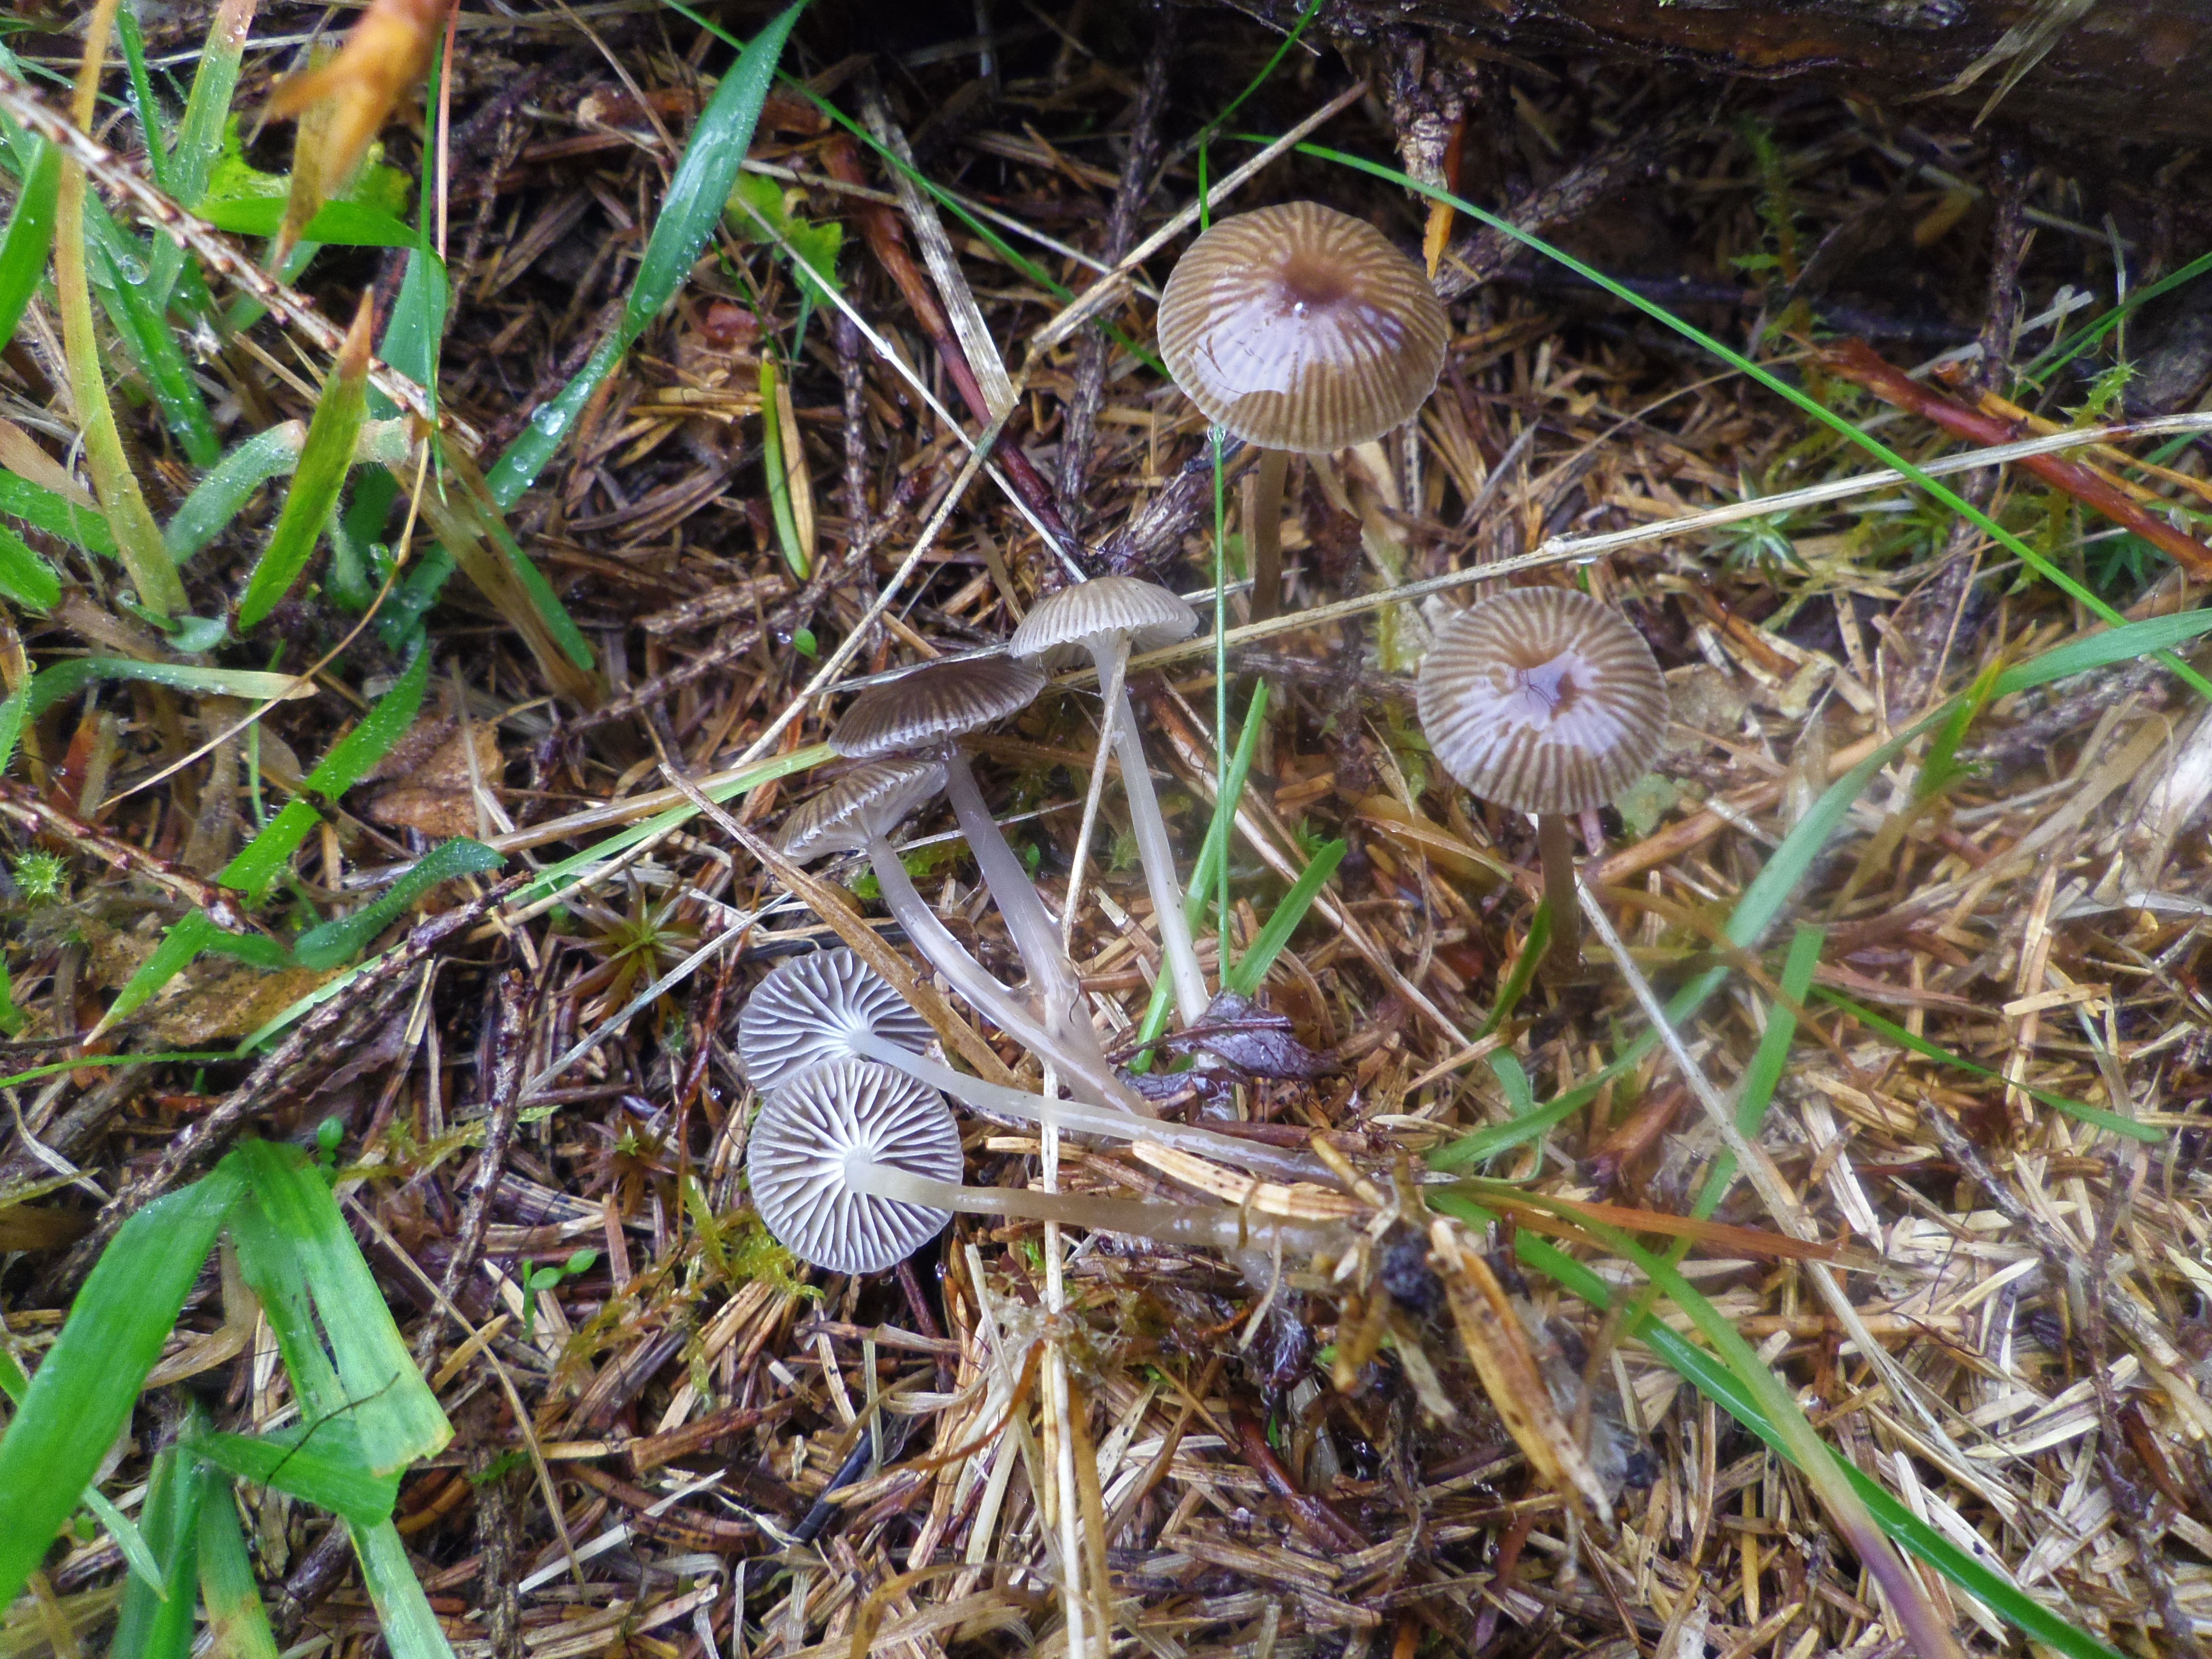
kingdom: Fungi
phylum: Basidiomycota
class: Agaricomycetes
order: Agaricales
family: Mycenaceae
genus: Mycena
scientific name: Mycena vulgaris
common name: Vulgar bonnet
